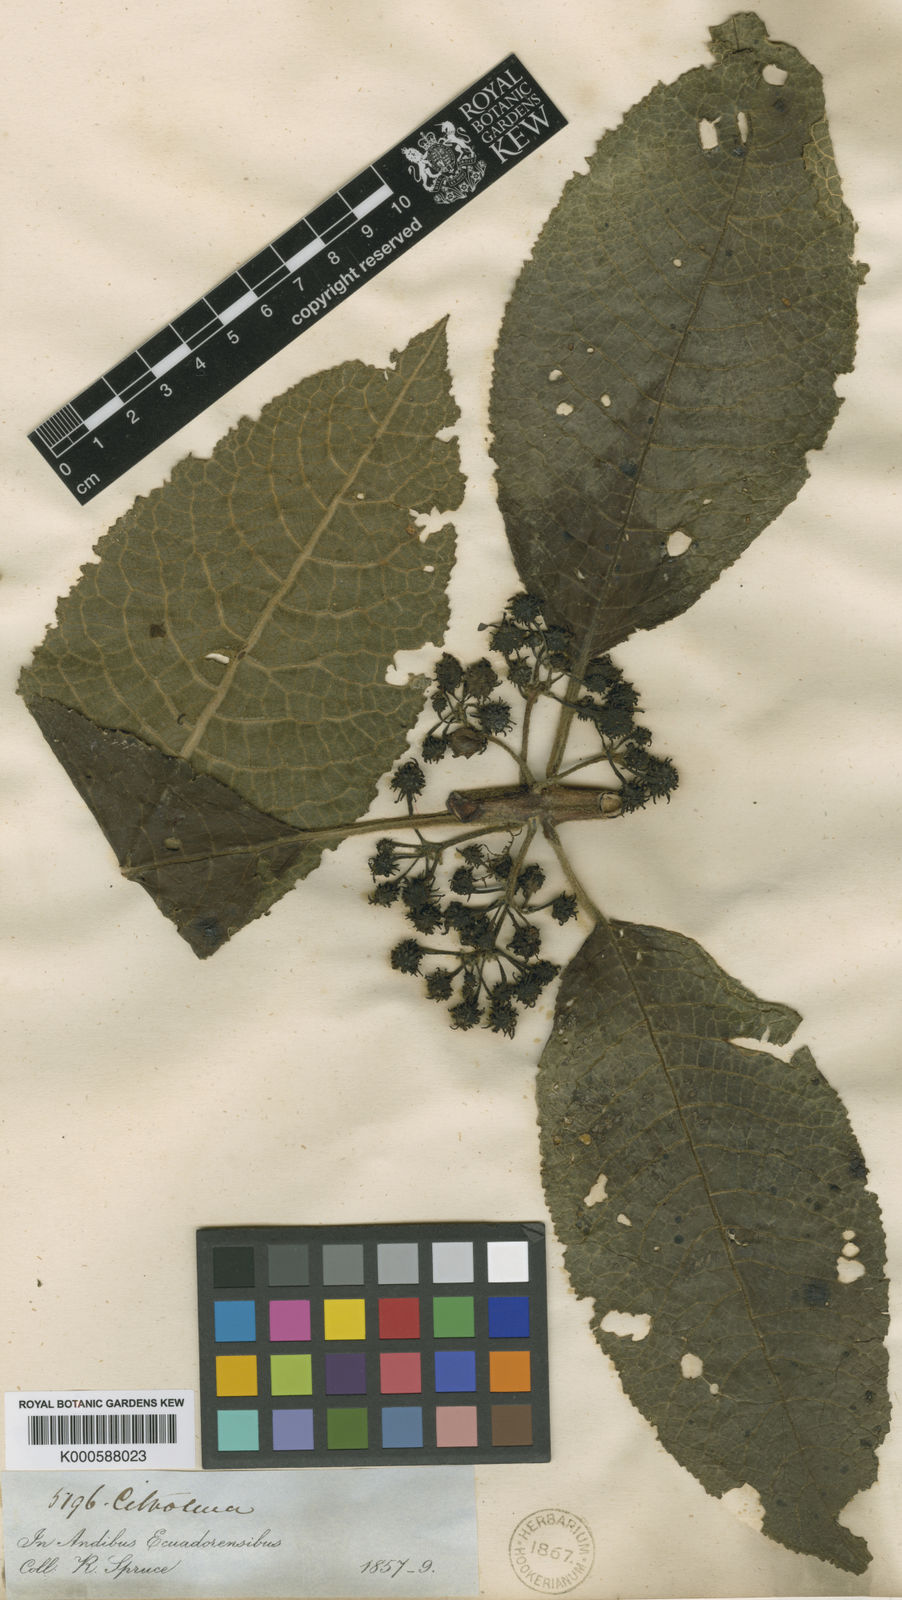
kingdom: Plantae
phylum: Tracheophyta
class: Magnoliopsida
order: Laurales
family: Siparunaceae
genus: Siparuna
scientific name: Siparuna muricata
